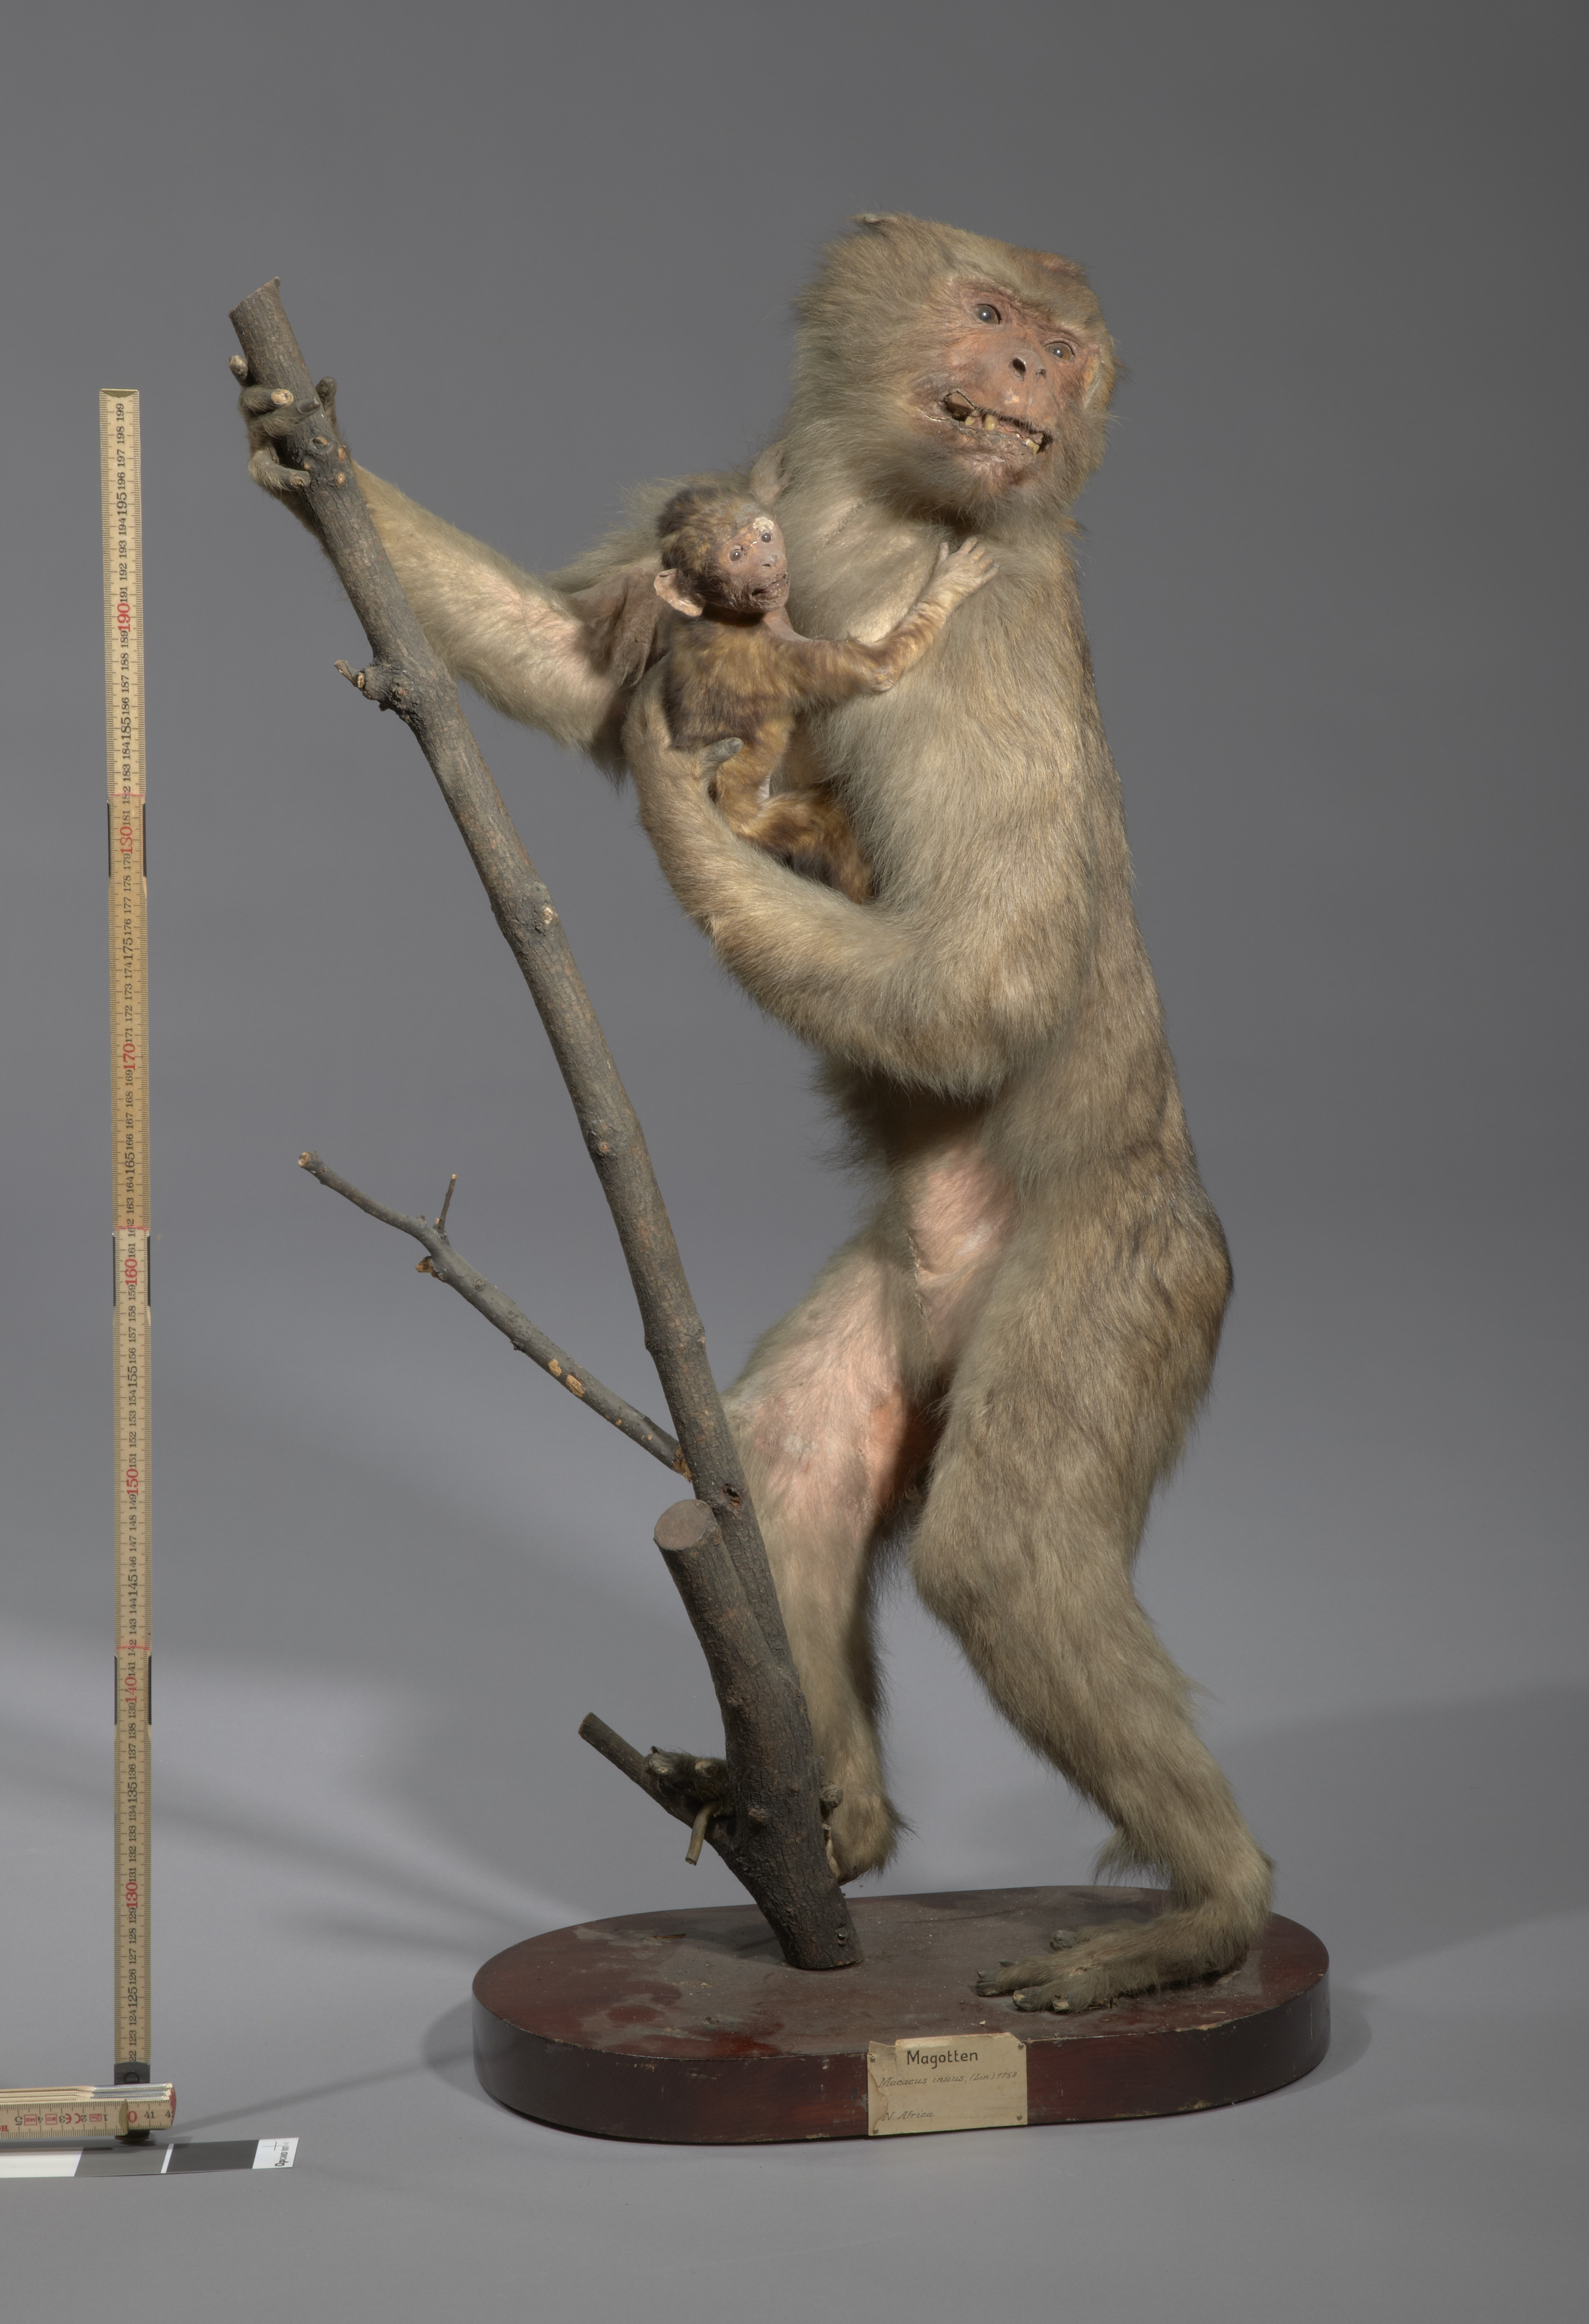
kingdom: Animalia
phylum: Chordata
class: Mammalia
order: Primates
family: Cercopithecidae
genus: Macaca
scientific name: Macaca sylvanus
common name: Barbary macaque
